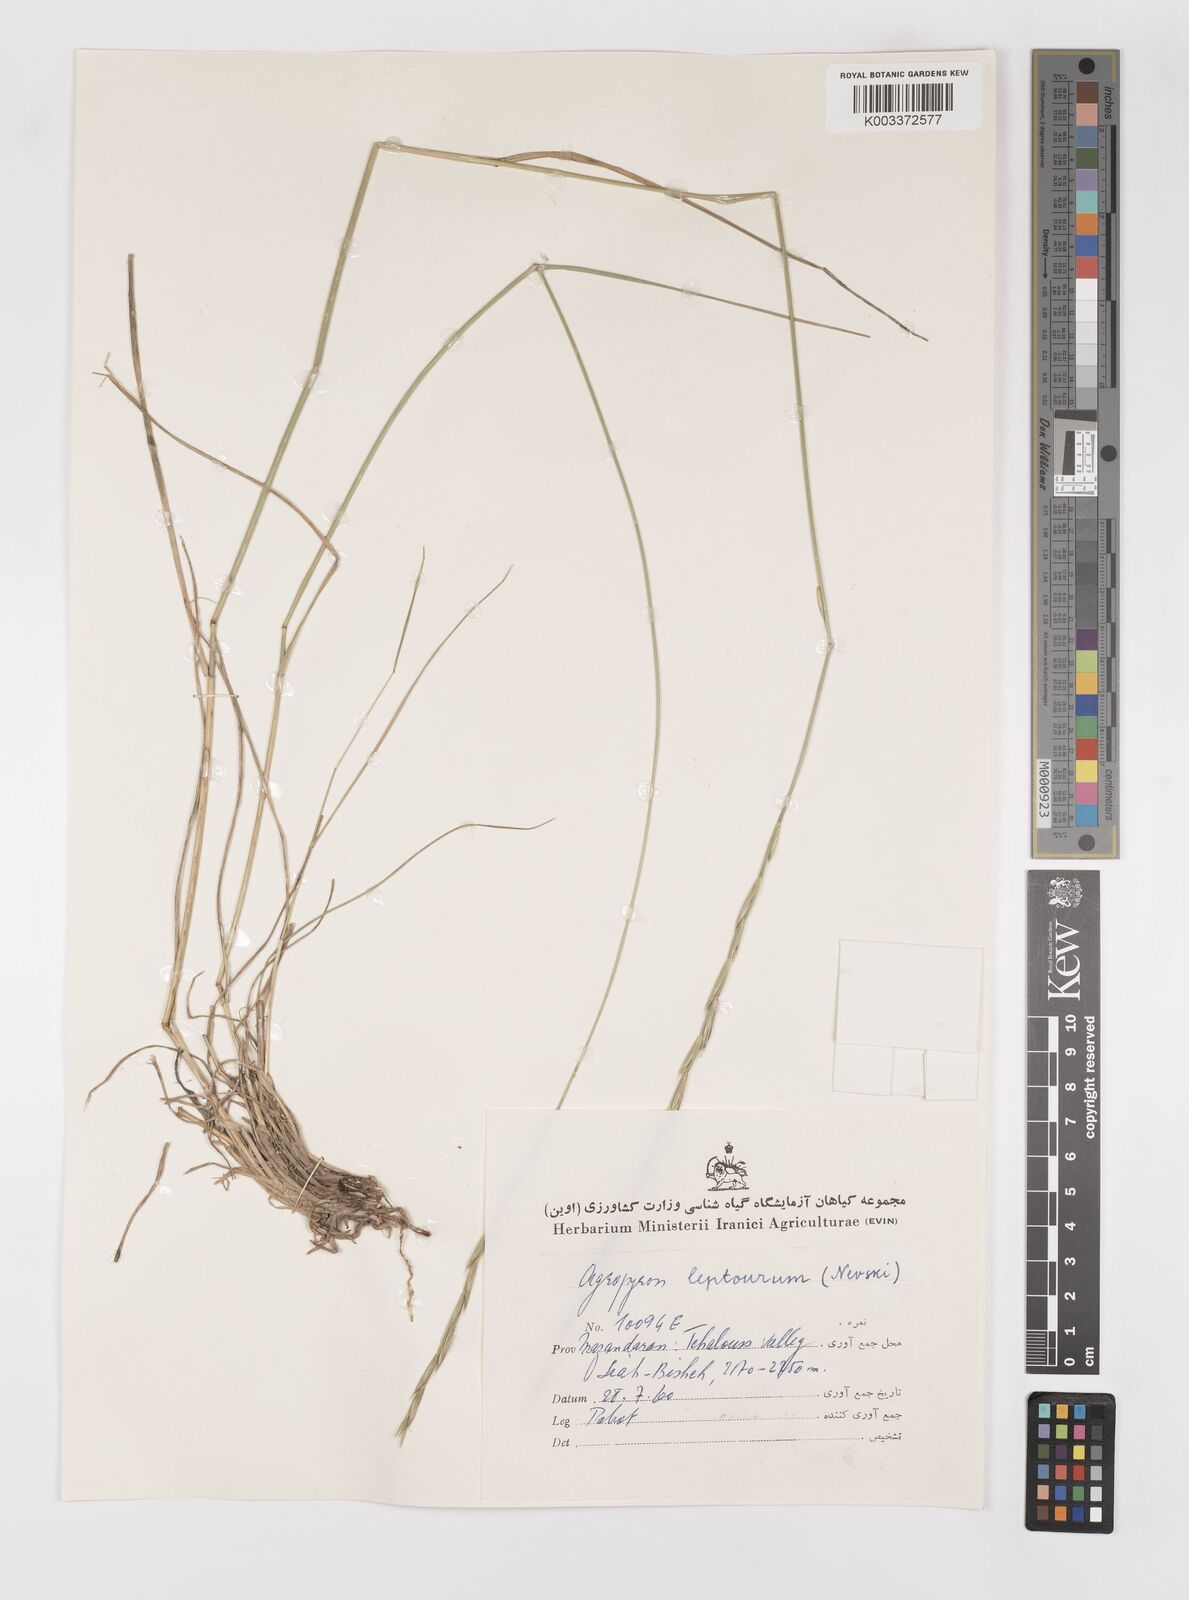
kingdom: Plantae
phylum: Tracheophyta
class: Liliopsida
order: Poales
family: Poaceae
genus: Elymus
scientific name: Elymus transhyrcanus
